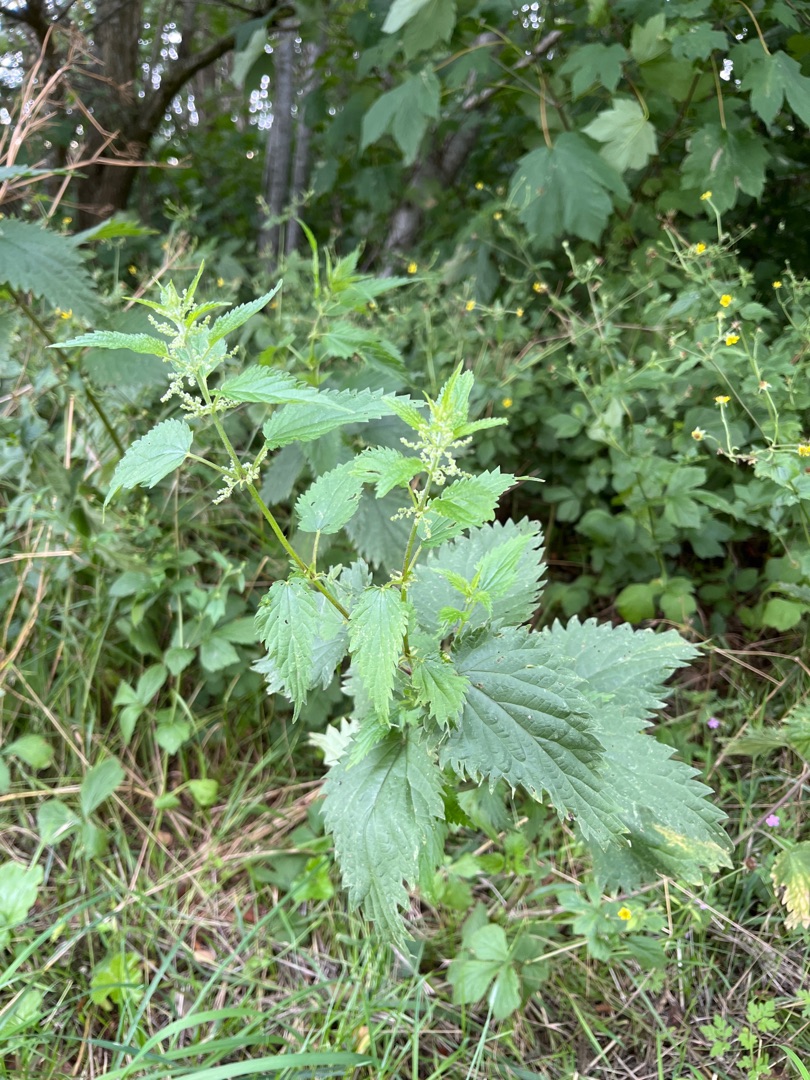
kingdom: Plantae
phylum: Tracheophyta
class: Magnoliopsida
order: Rosales
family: Urticaceae
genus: Urtica
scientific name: Urtica dioica
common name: Stor nælde
